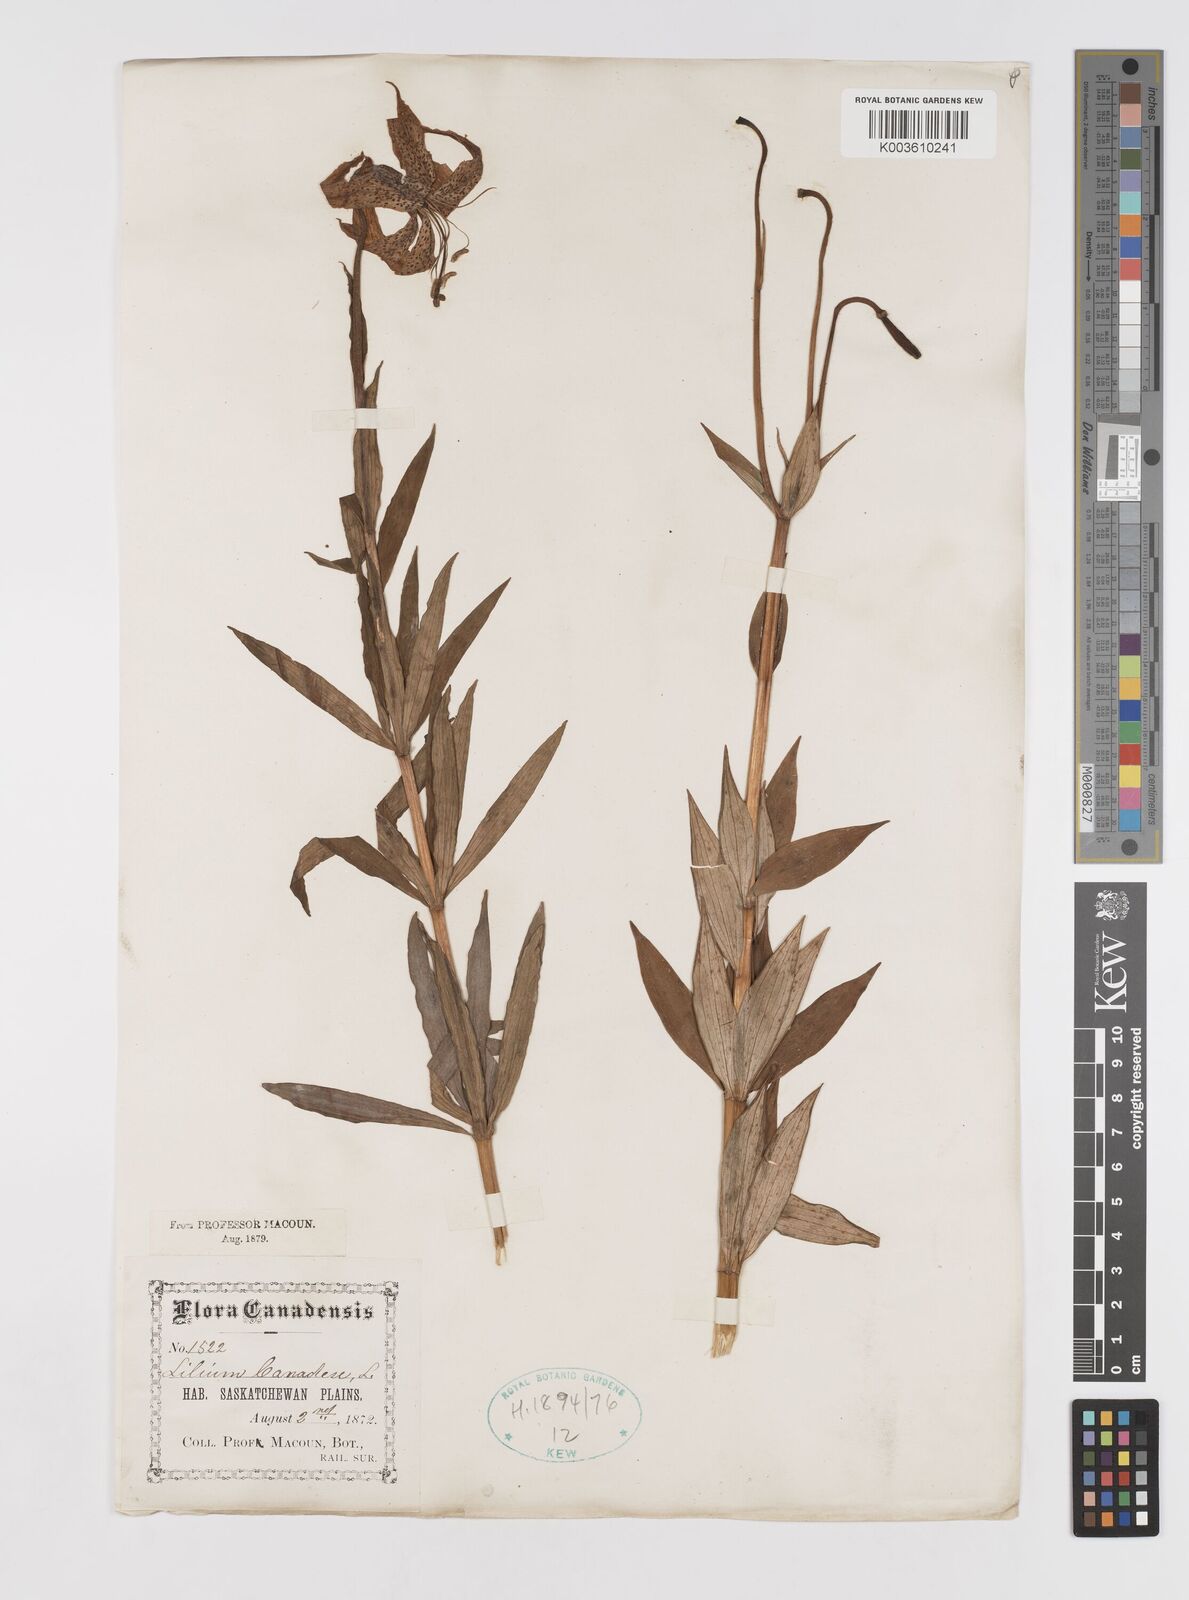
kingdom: Plantae
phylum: Tracheophyta
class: Liliopsida
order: Liliales
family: Liliaceae
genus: Lilium
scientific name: Lilium canadense
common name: Canada lily
